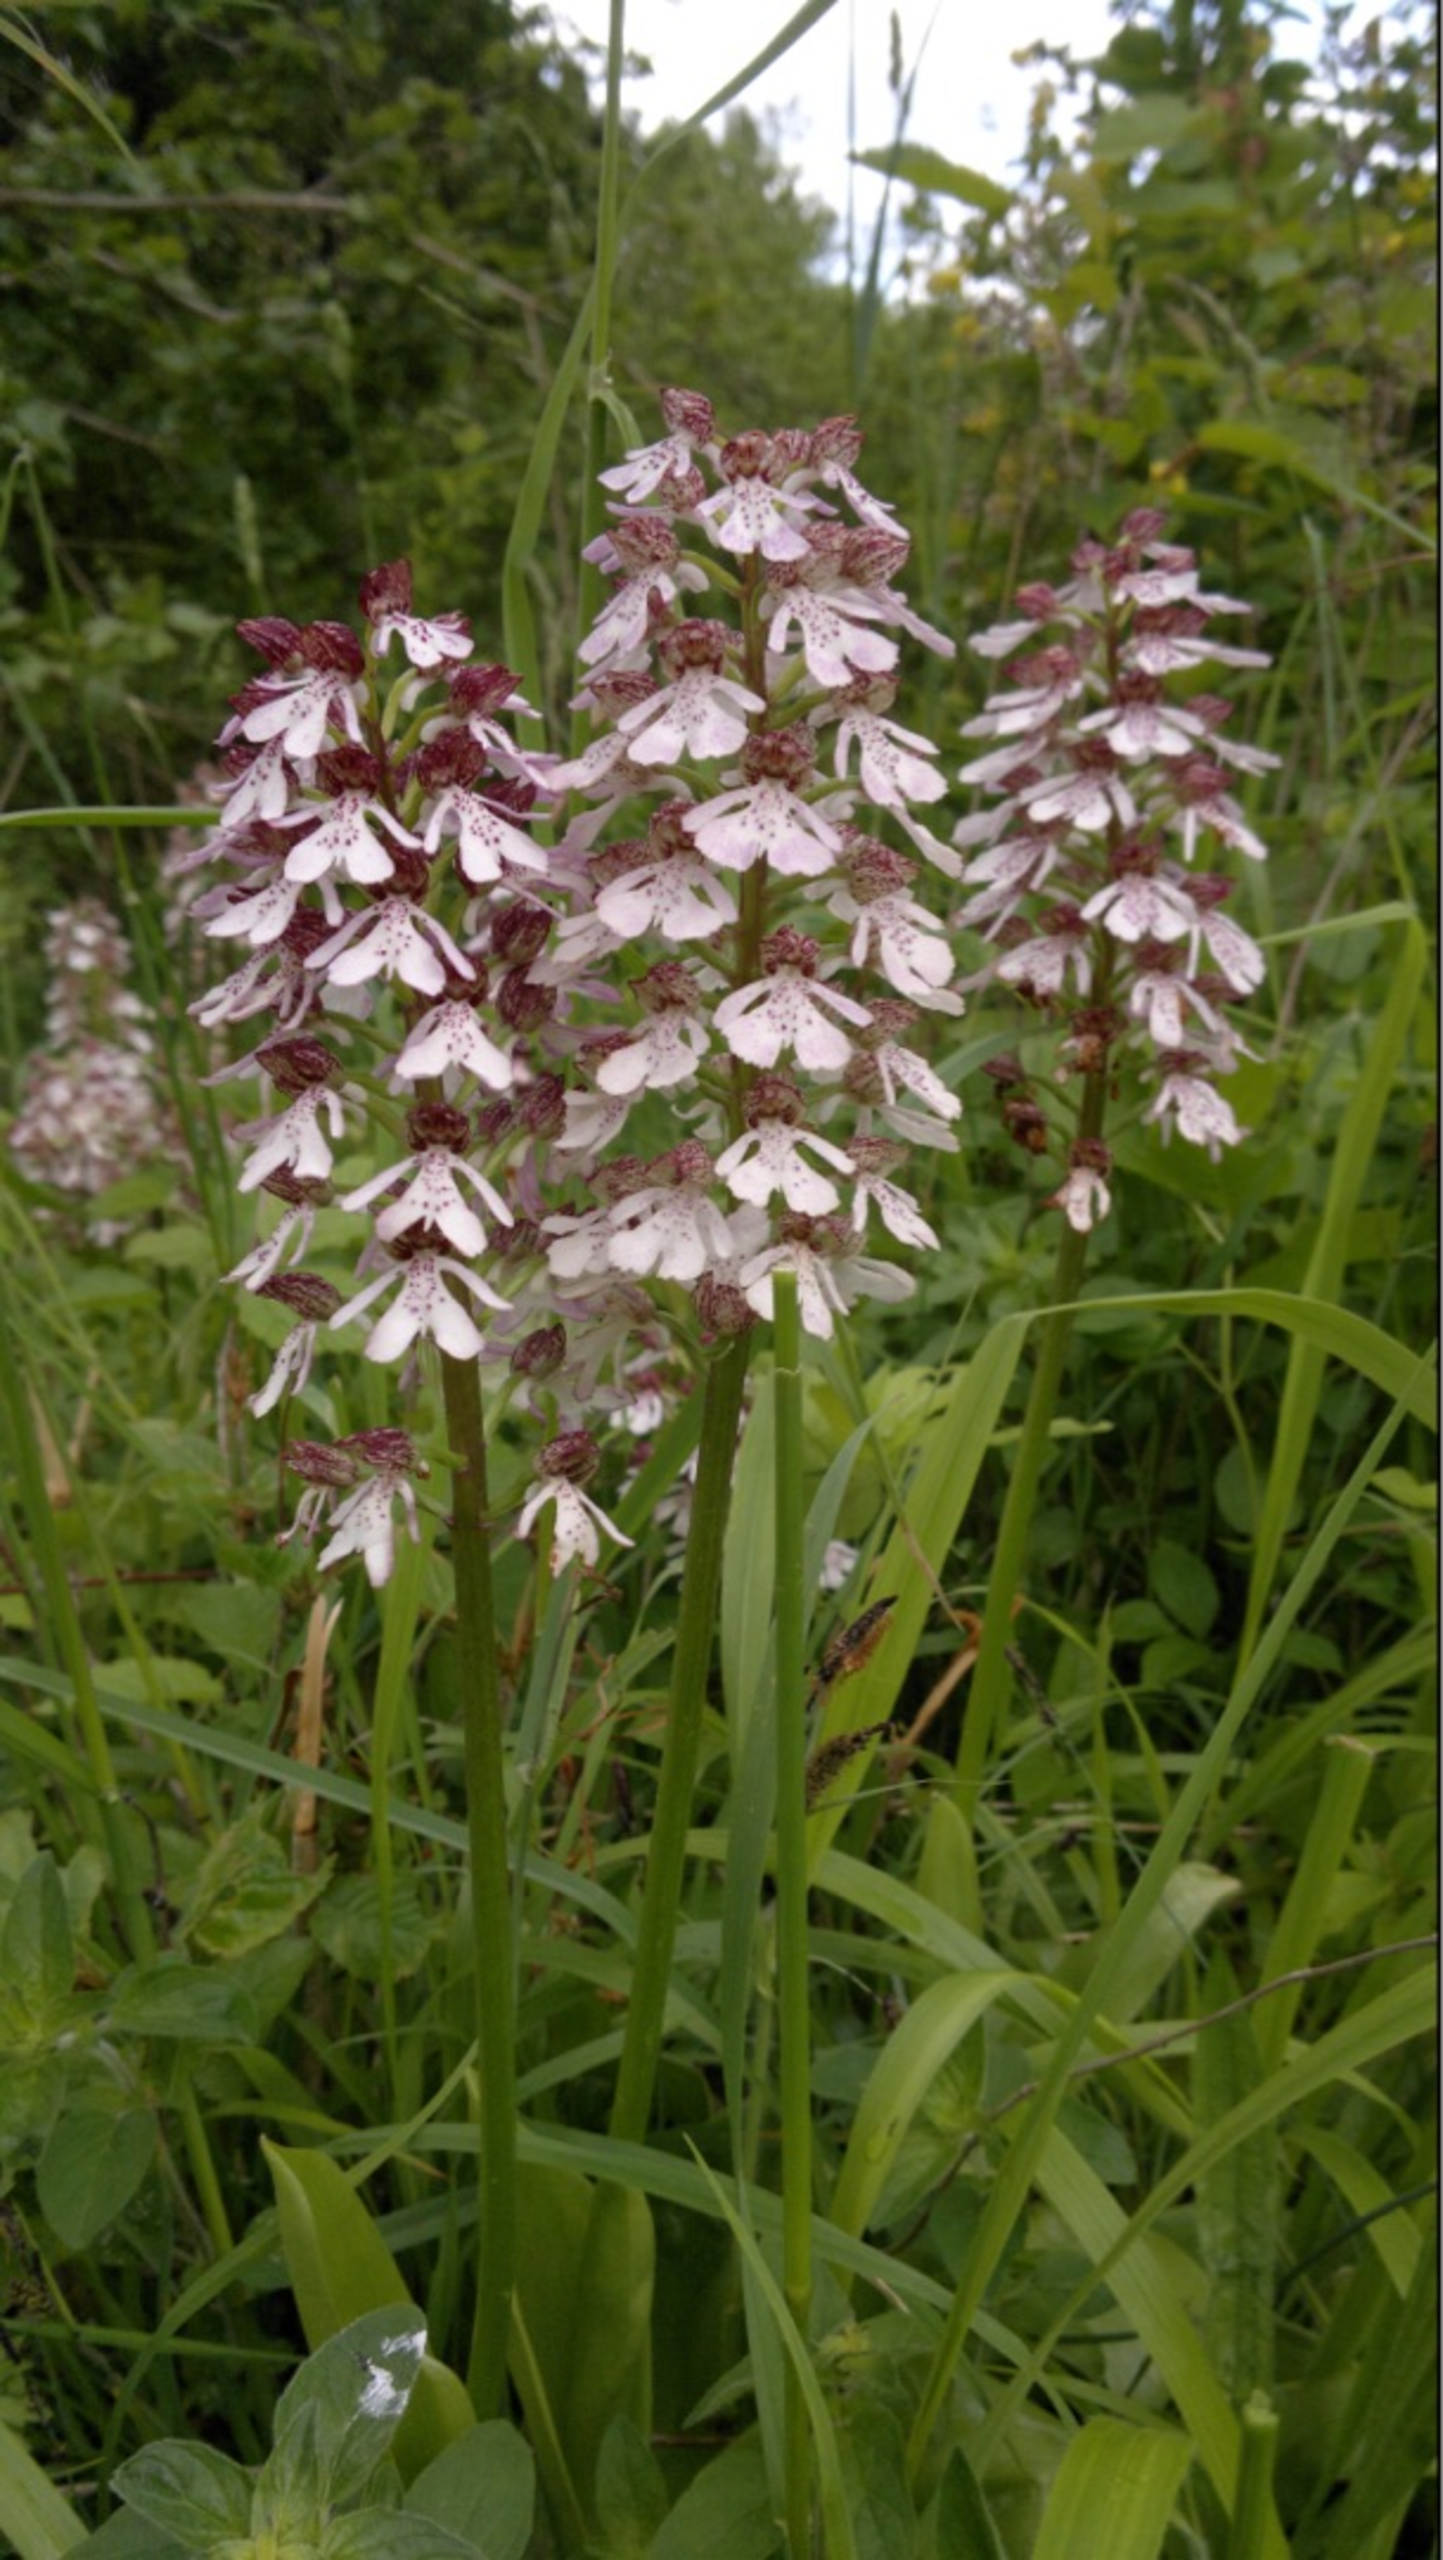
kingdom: Plantae
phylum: Tracheophyta
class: Liliopsida
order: Asparagales
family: Orchidaceae
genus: Orchis
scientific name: Orchis purpurea
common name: Stor gøgeurt
